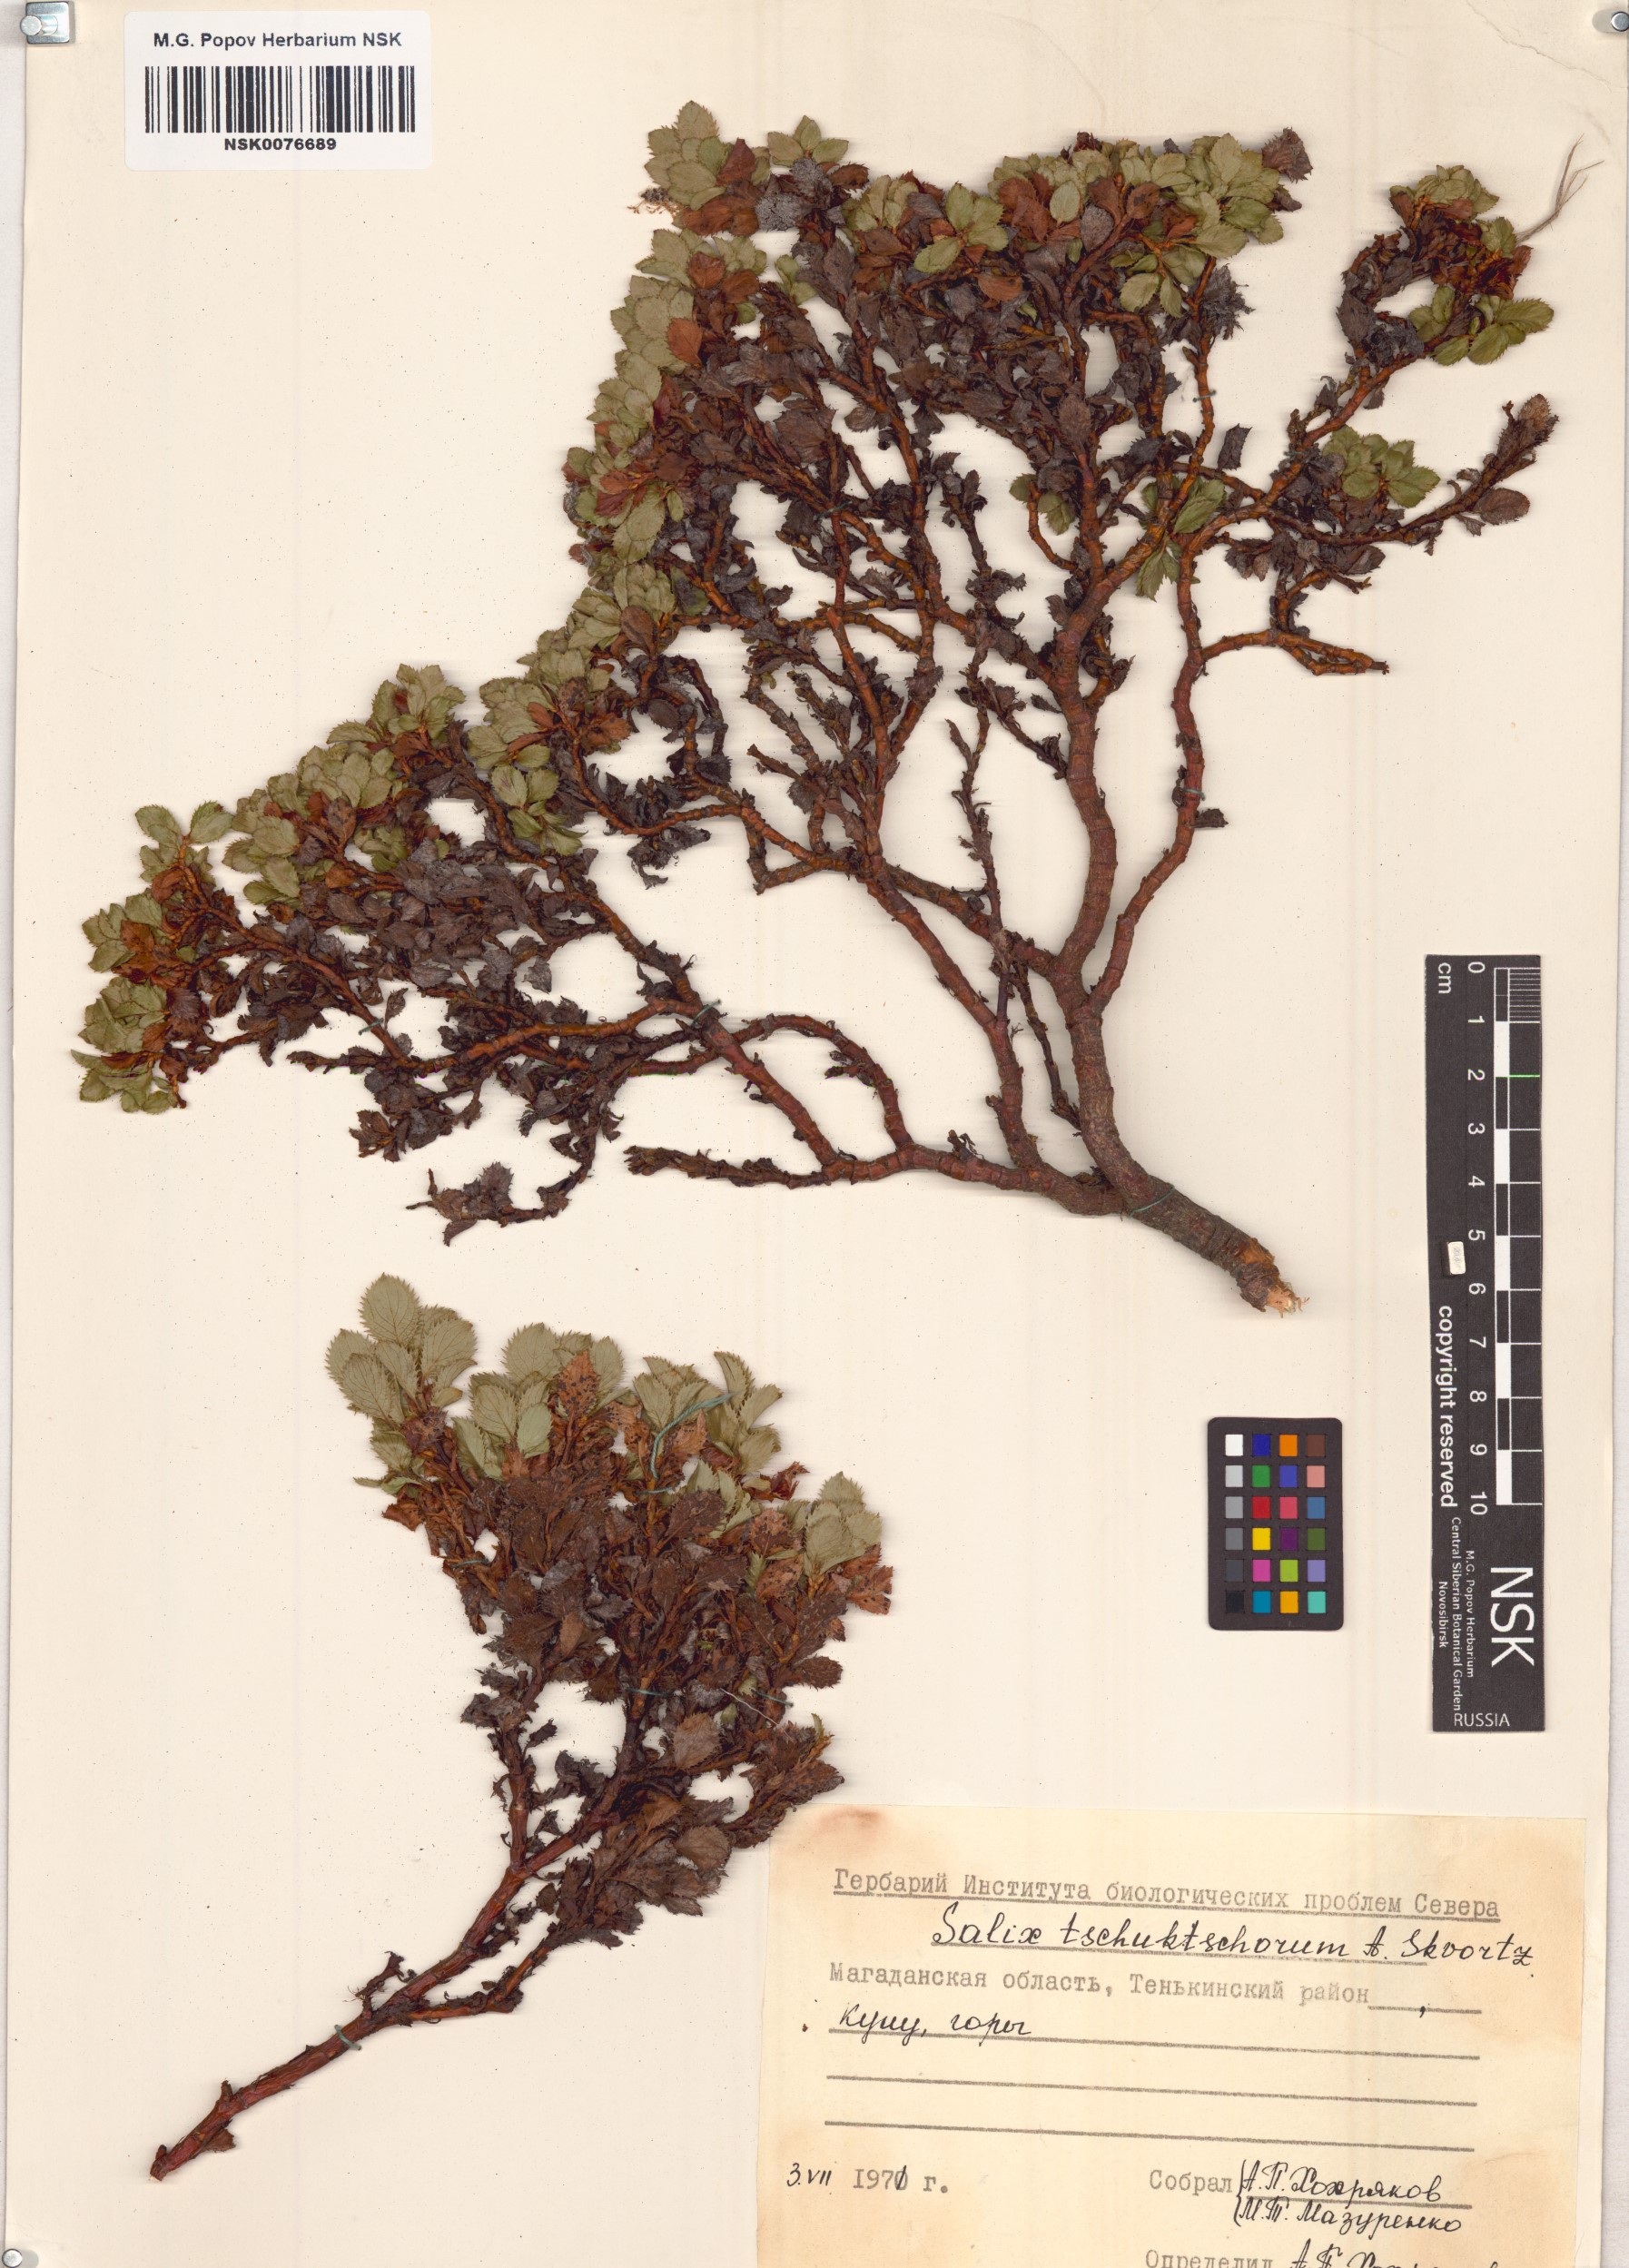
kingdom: Plantae
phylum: Tracheophyta
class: Magnoliopsida
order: Malpighiales
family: Salicaceae
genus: Salix
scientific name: Salix tschuktschorum
